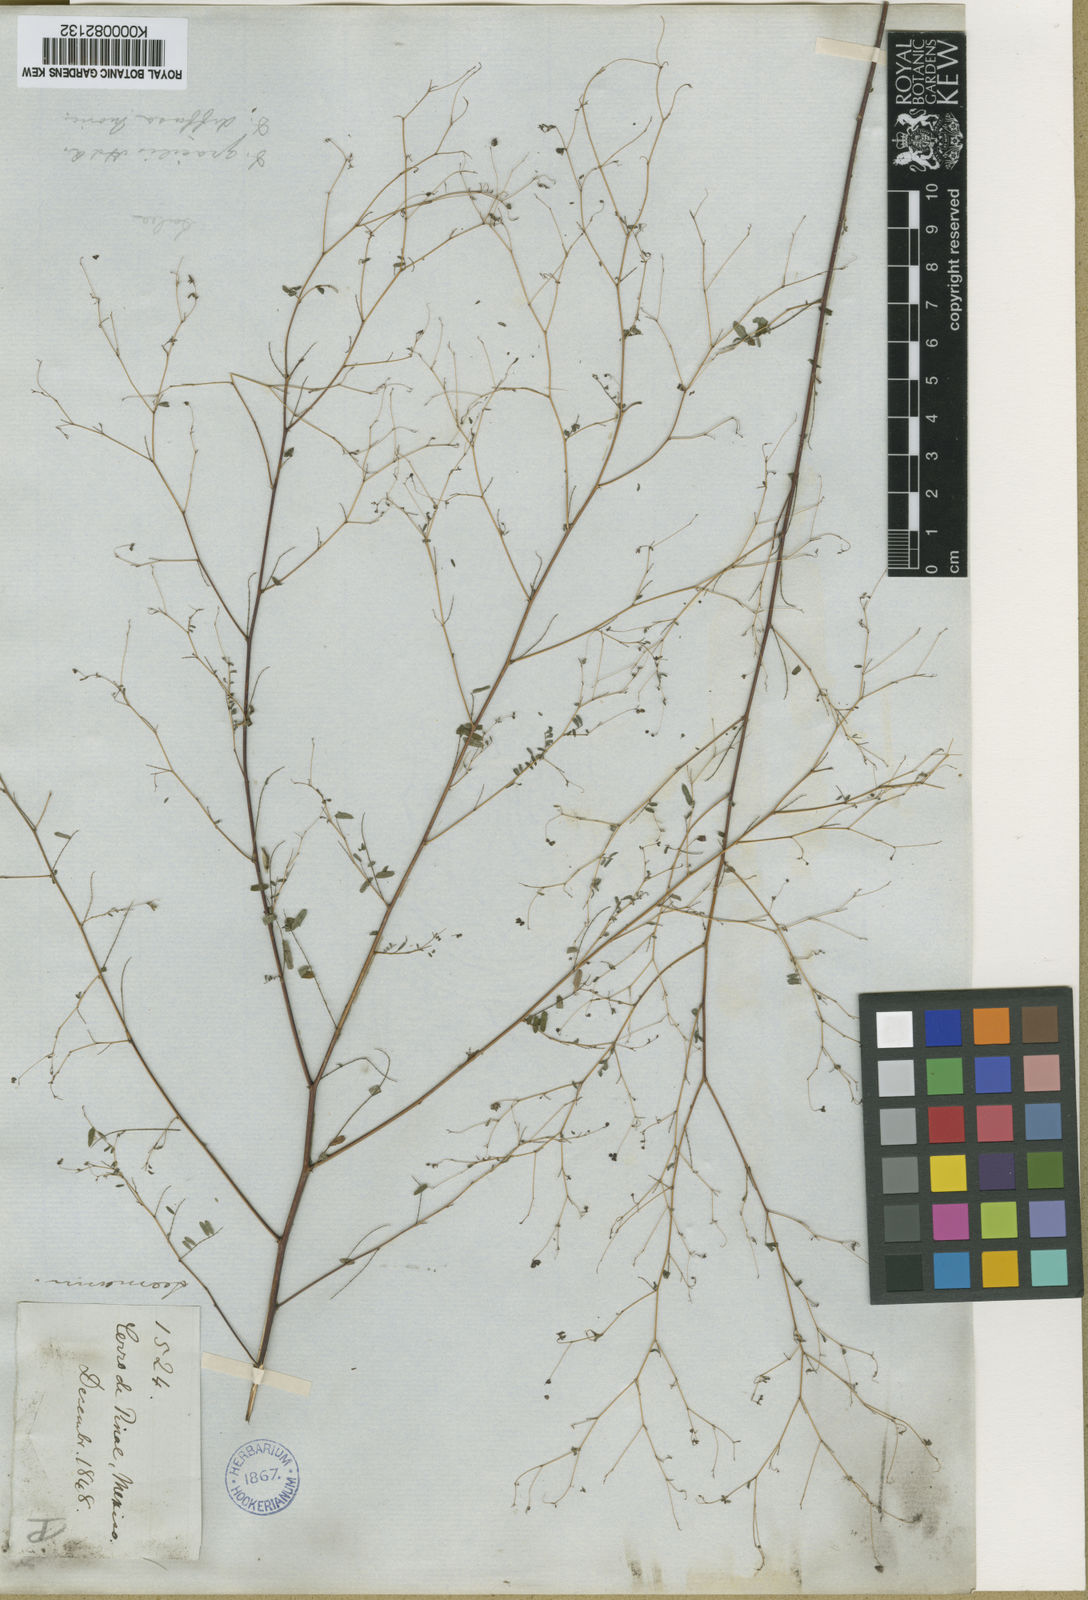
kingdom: Plantae
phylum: Tracheophyta
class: Magnoliopsida
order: Fabales
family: Fabaceae
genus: Marina
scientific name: Marina diffusa
